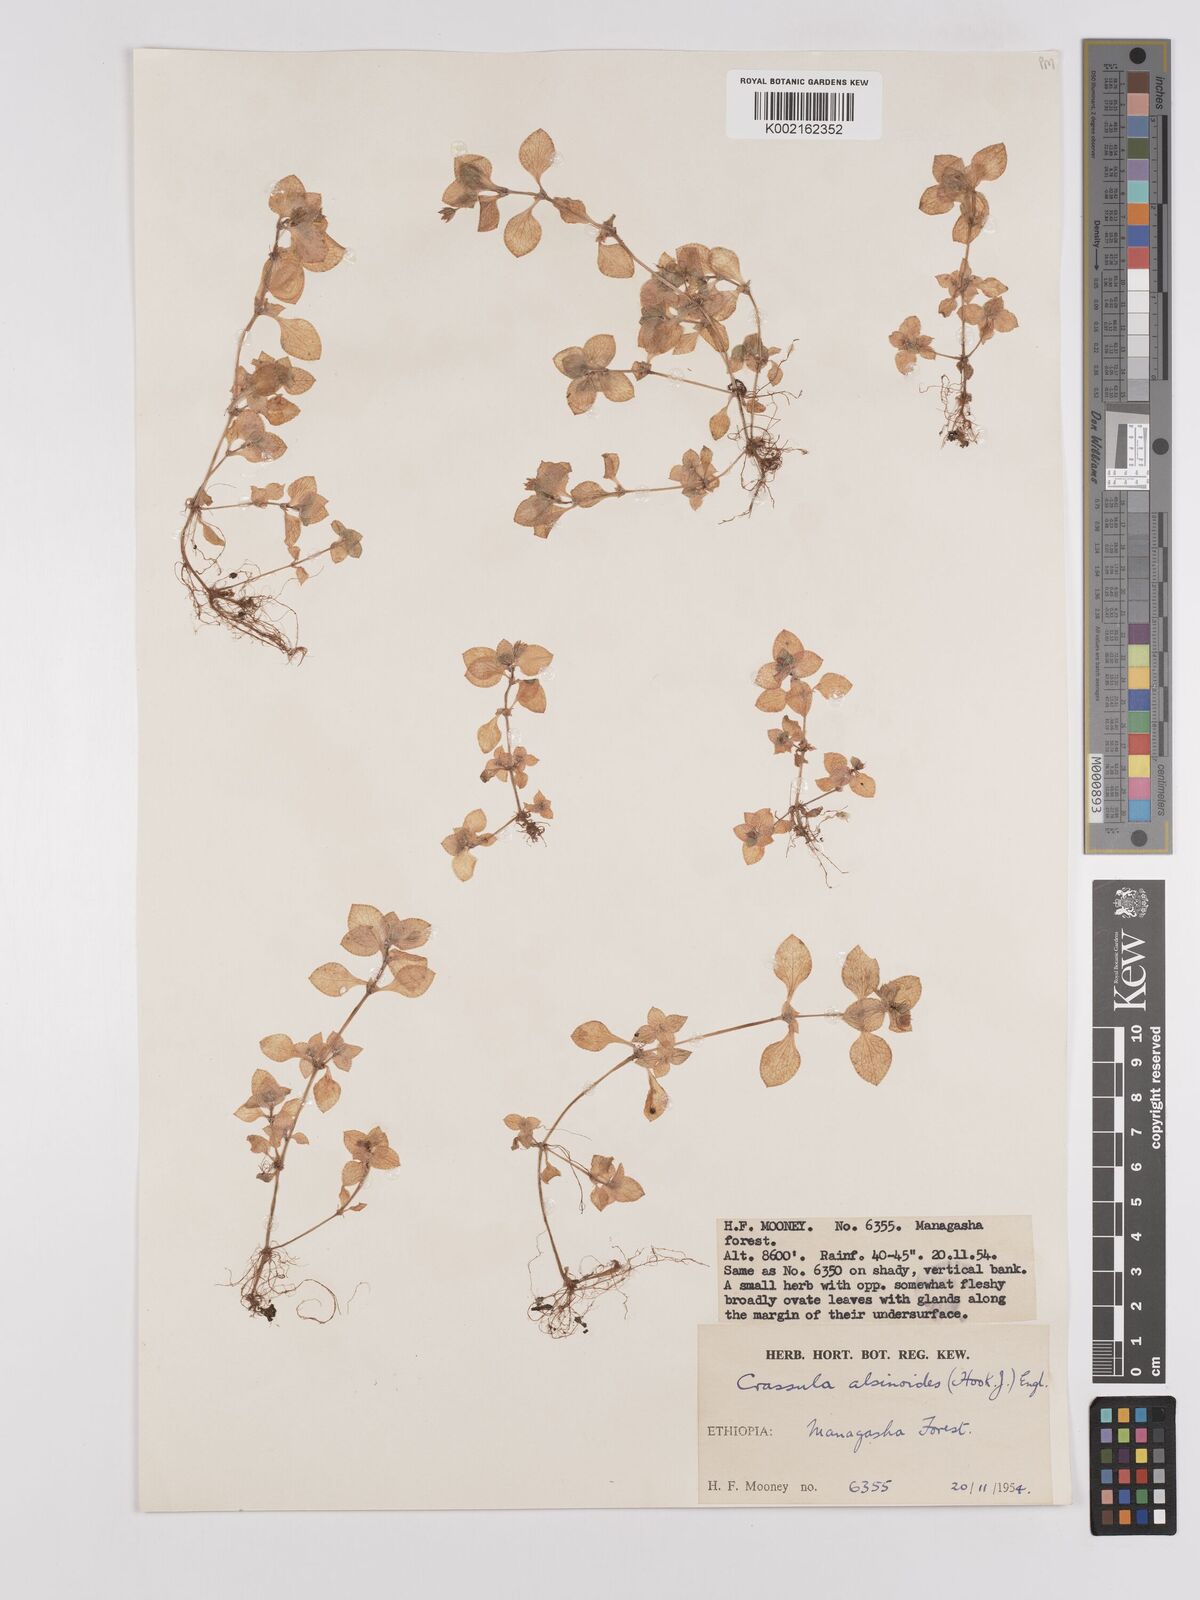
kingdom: Plantae
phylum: Tracheophyta
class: Magnoliopsida
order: Saxifragales
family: Crassulaceae
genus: Crassula
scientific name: Crassula alsinoides
